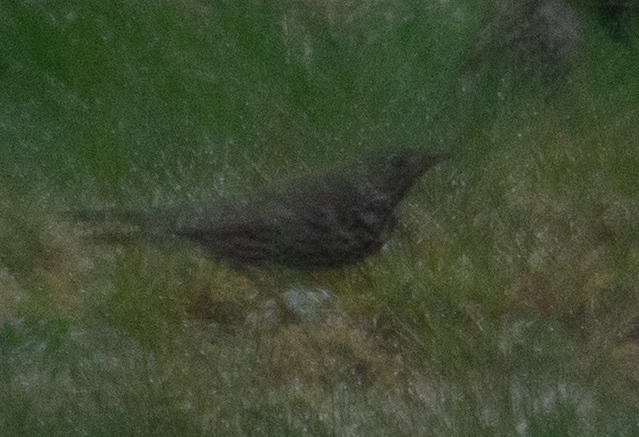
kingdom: Animalia
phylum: Chordata
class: Aves
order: Passeriformes
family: Turdidae
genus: Turdus
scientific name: Turdus viscivorus
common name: Misteldrossel
